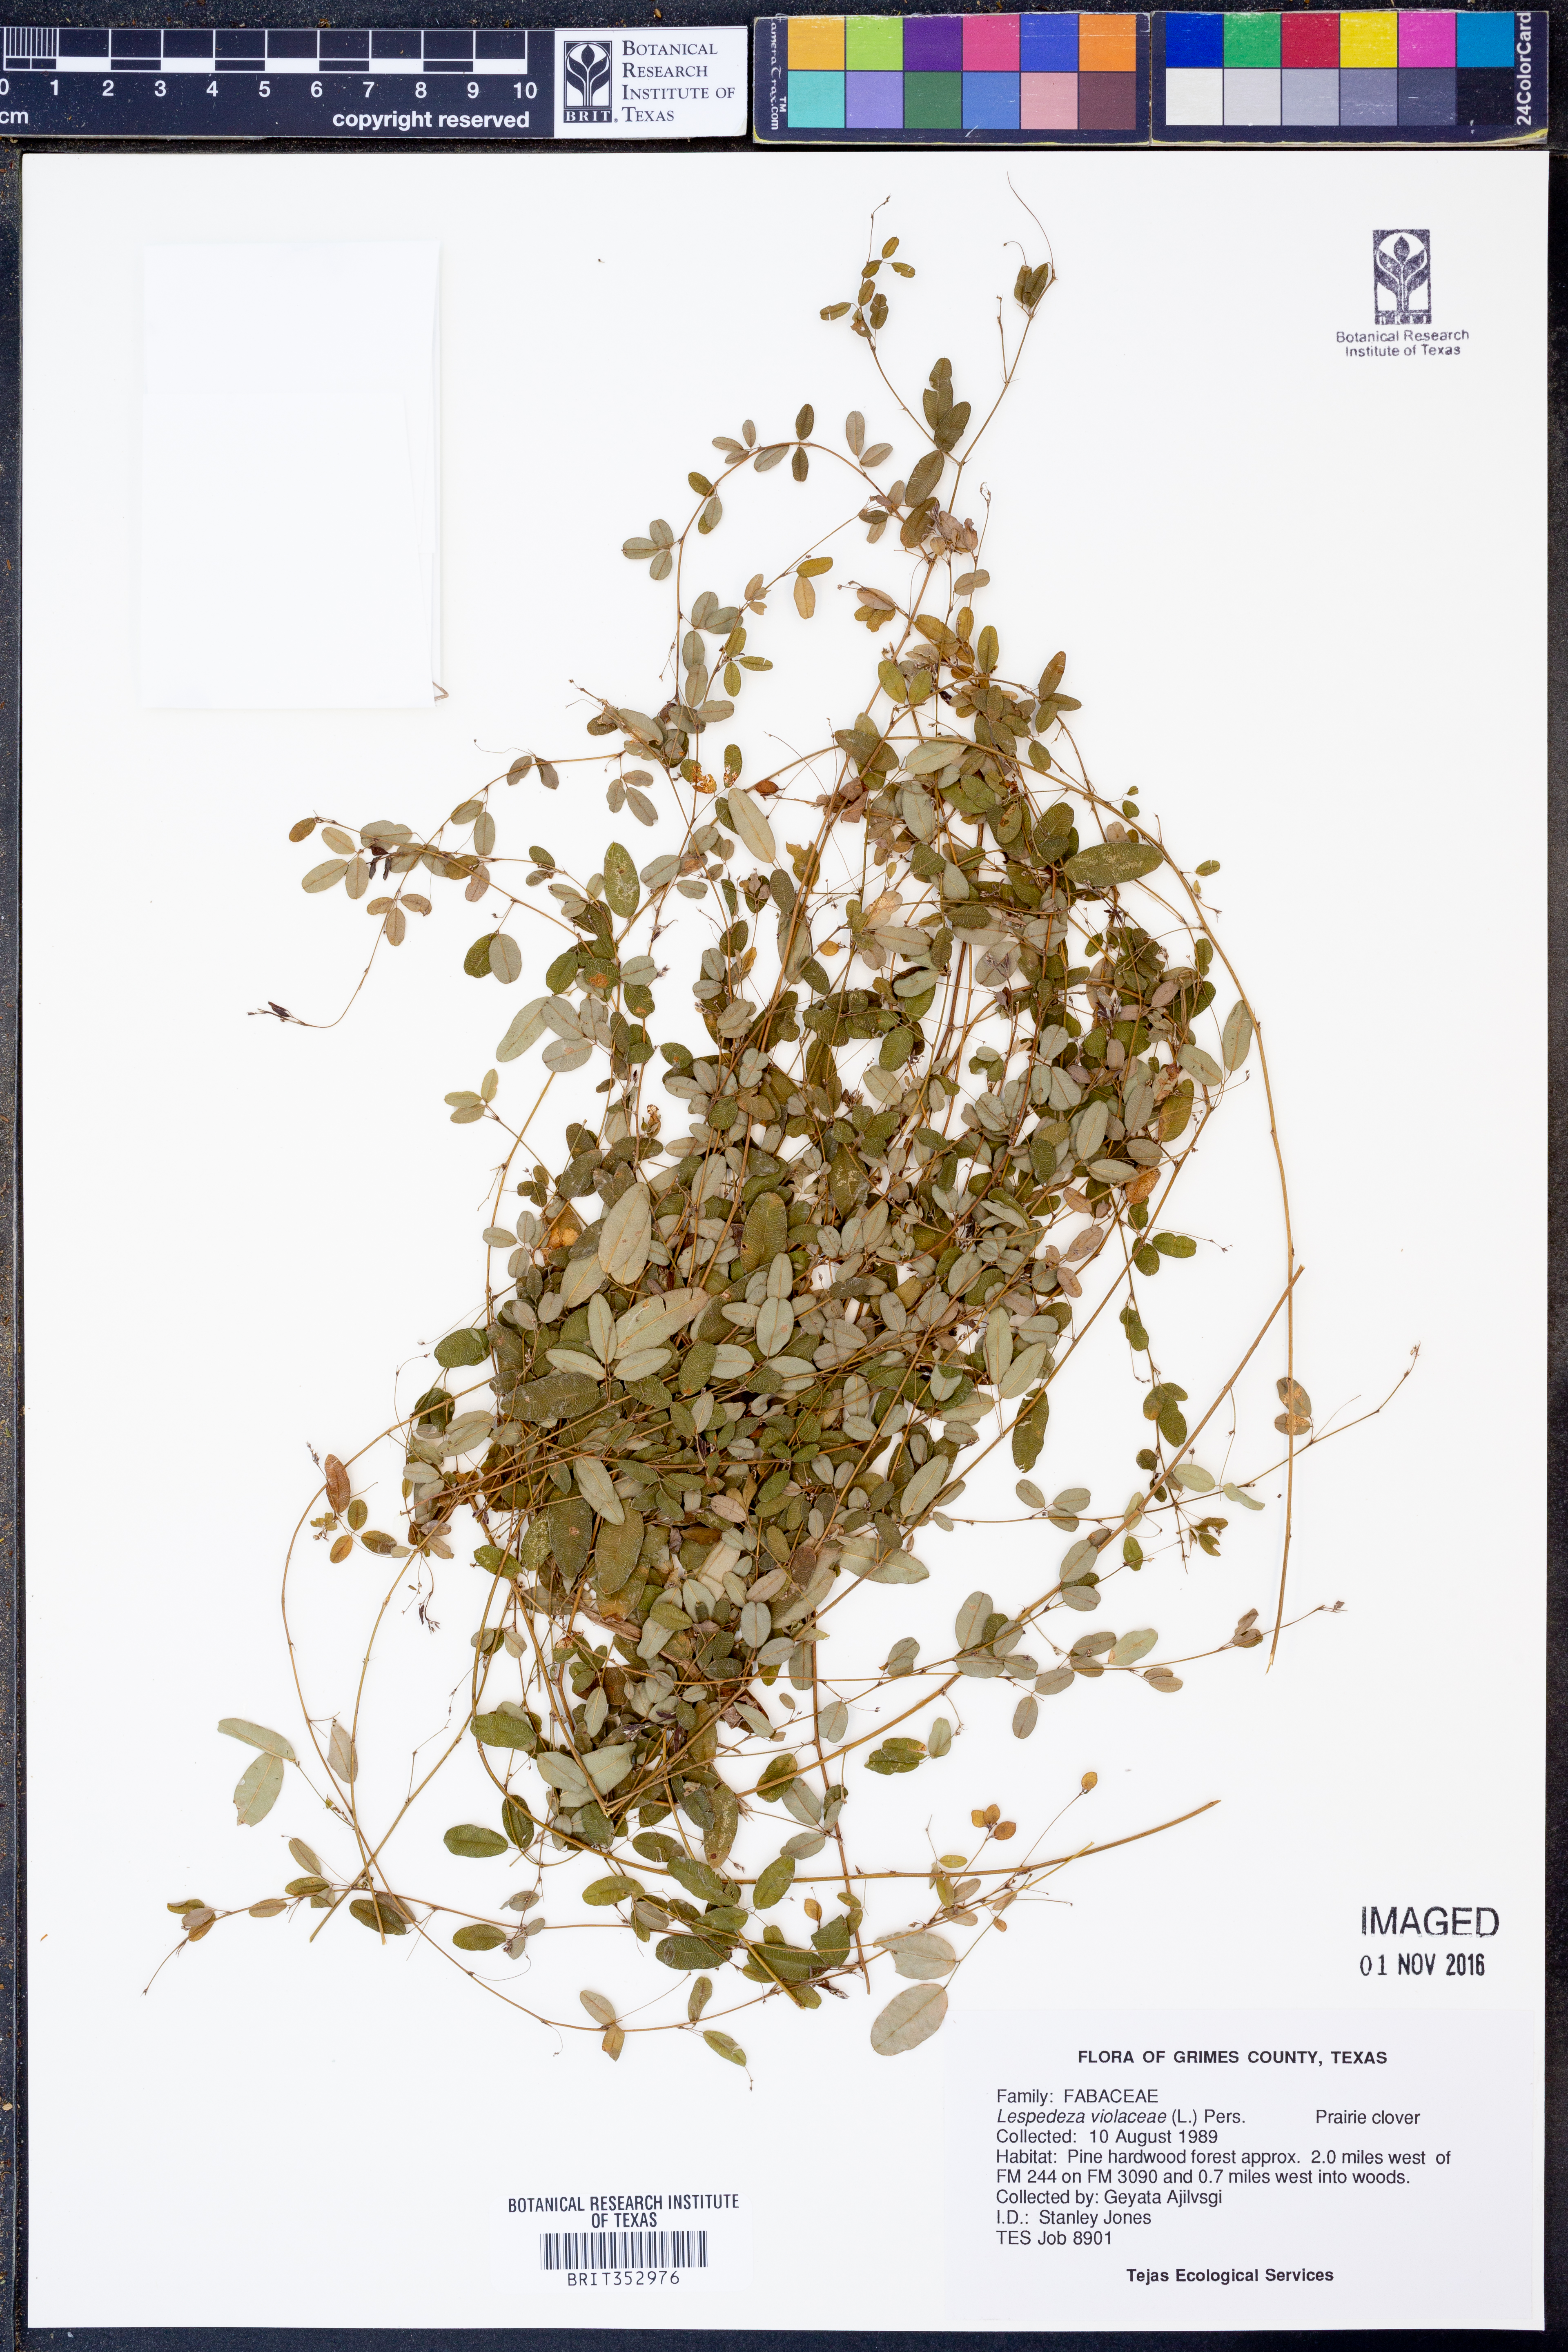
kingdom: Plantae
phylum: Tracheophyta
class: Magnoliopsida
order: Fabales
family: Fabaceae
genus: Lespedeza
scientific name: Lespedeza violacea
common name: Wand bush-clover
